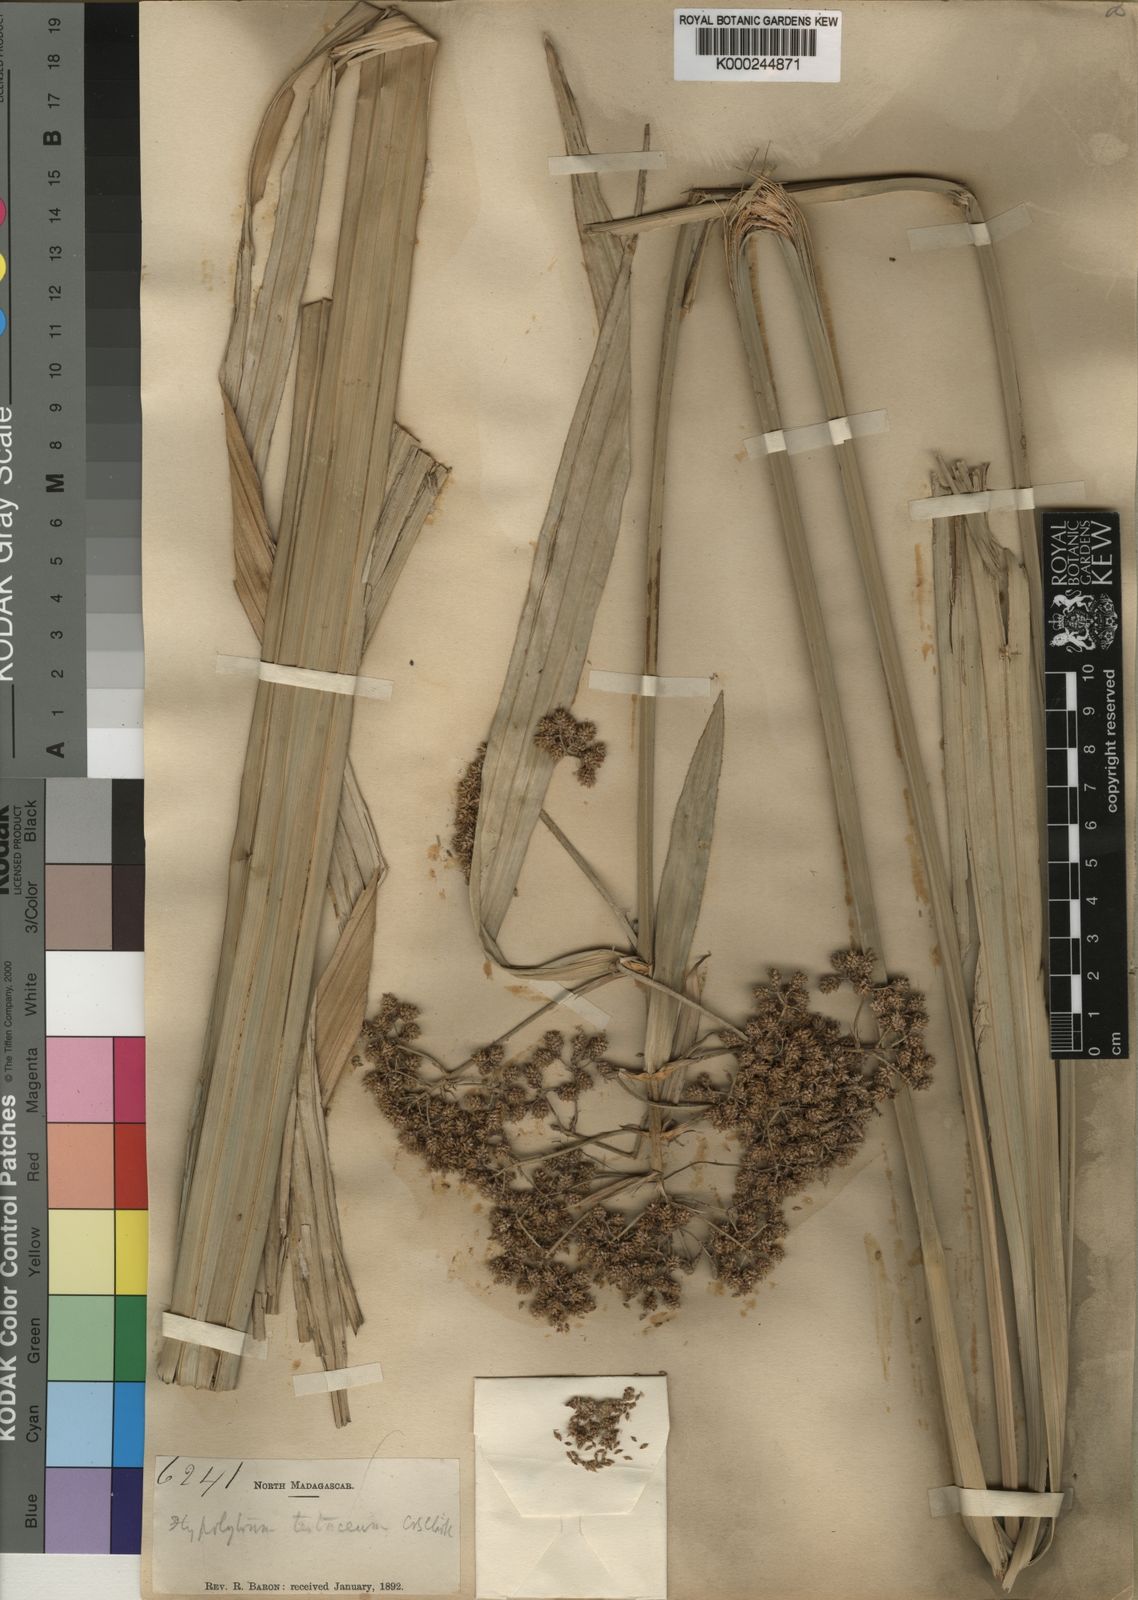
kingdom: Plantae
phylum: Tracheophyta
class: Liliopsida
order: Poales
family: Cyperaceae
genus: Hypolytrum
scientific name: Hypolytrum
